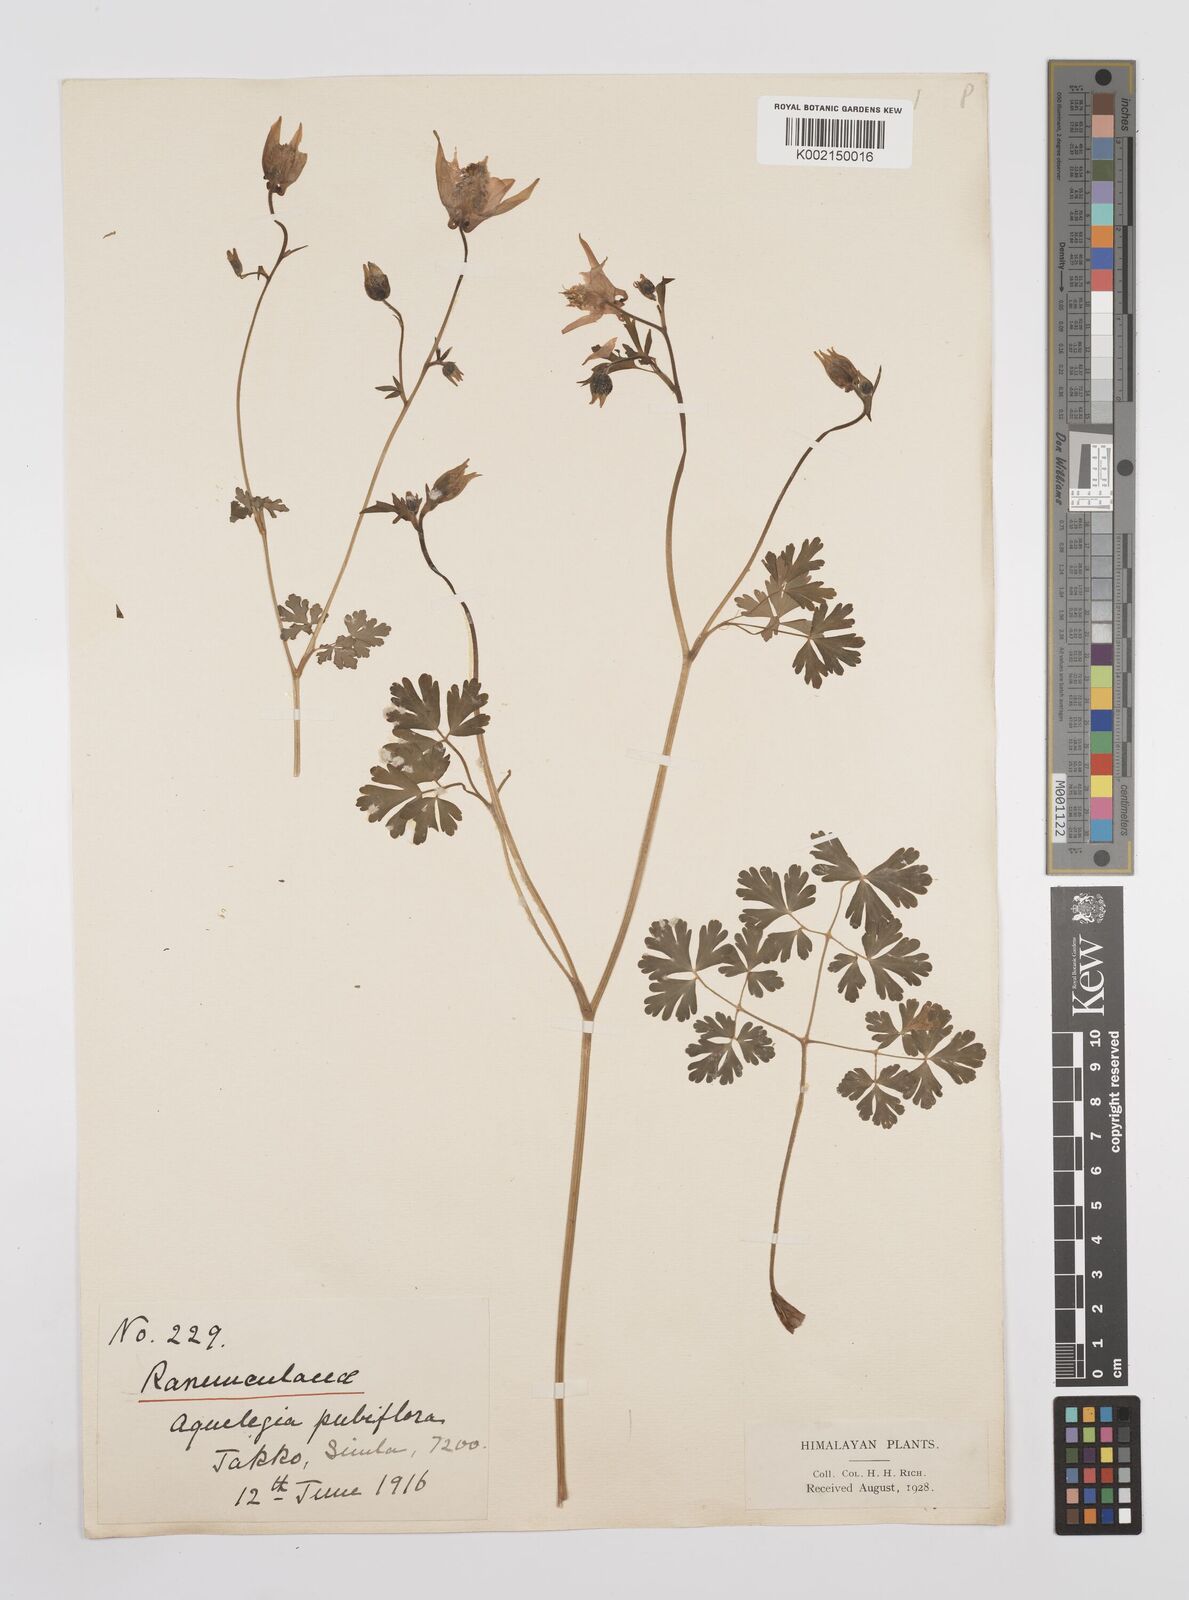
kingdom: Plantae
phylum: Tracheophyta
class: Magnoliopsida
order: Ranunculales
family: Ranunculaceae
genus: Aquilegia
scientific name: Aquilegia pubiflora
